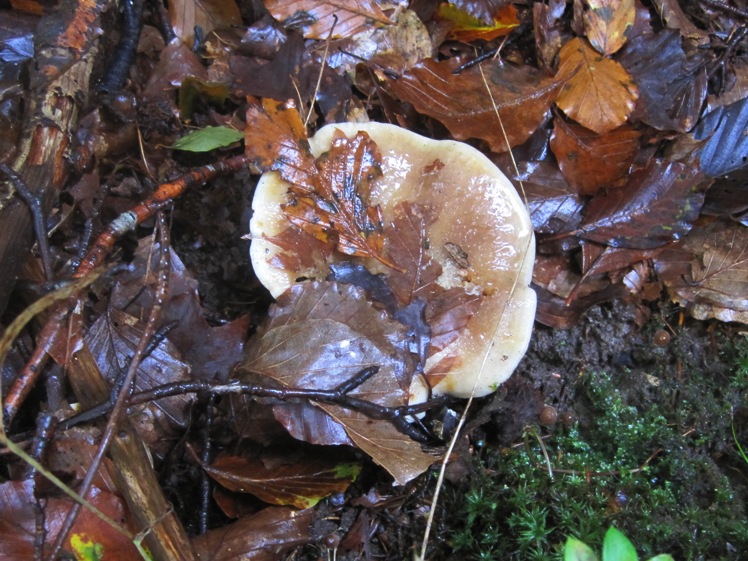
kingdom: Fungi
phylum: Basidiomycota
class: Agaricomycetes
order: Russulales
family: Russulaceae
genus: Lactarius
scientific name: Lactarius fluens
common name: lysrandet mælkehat
